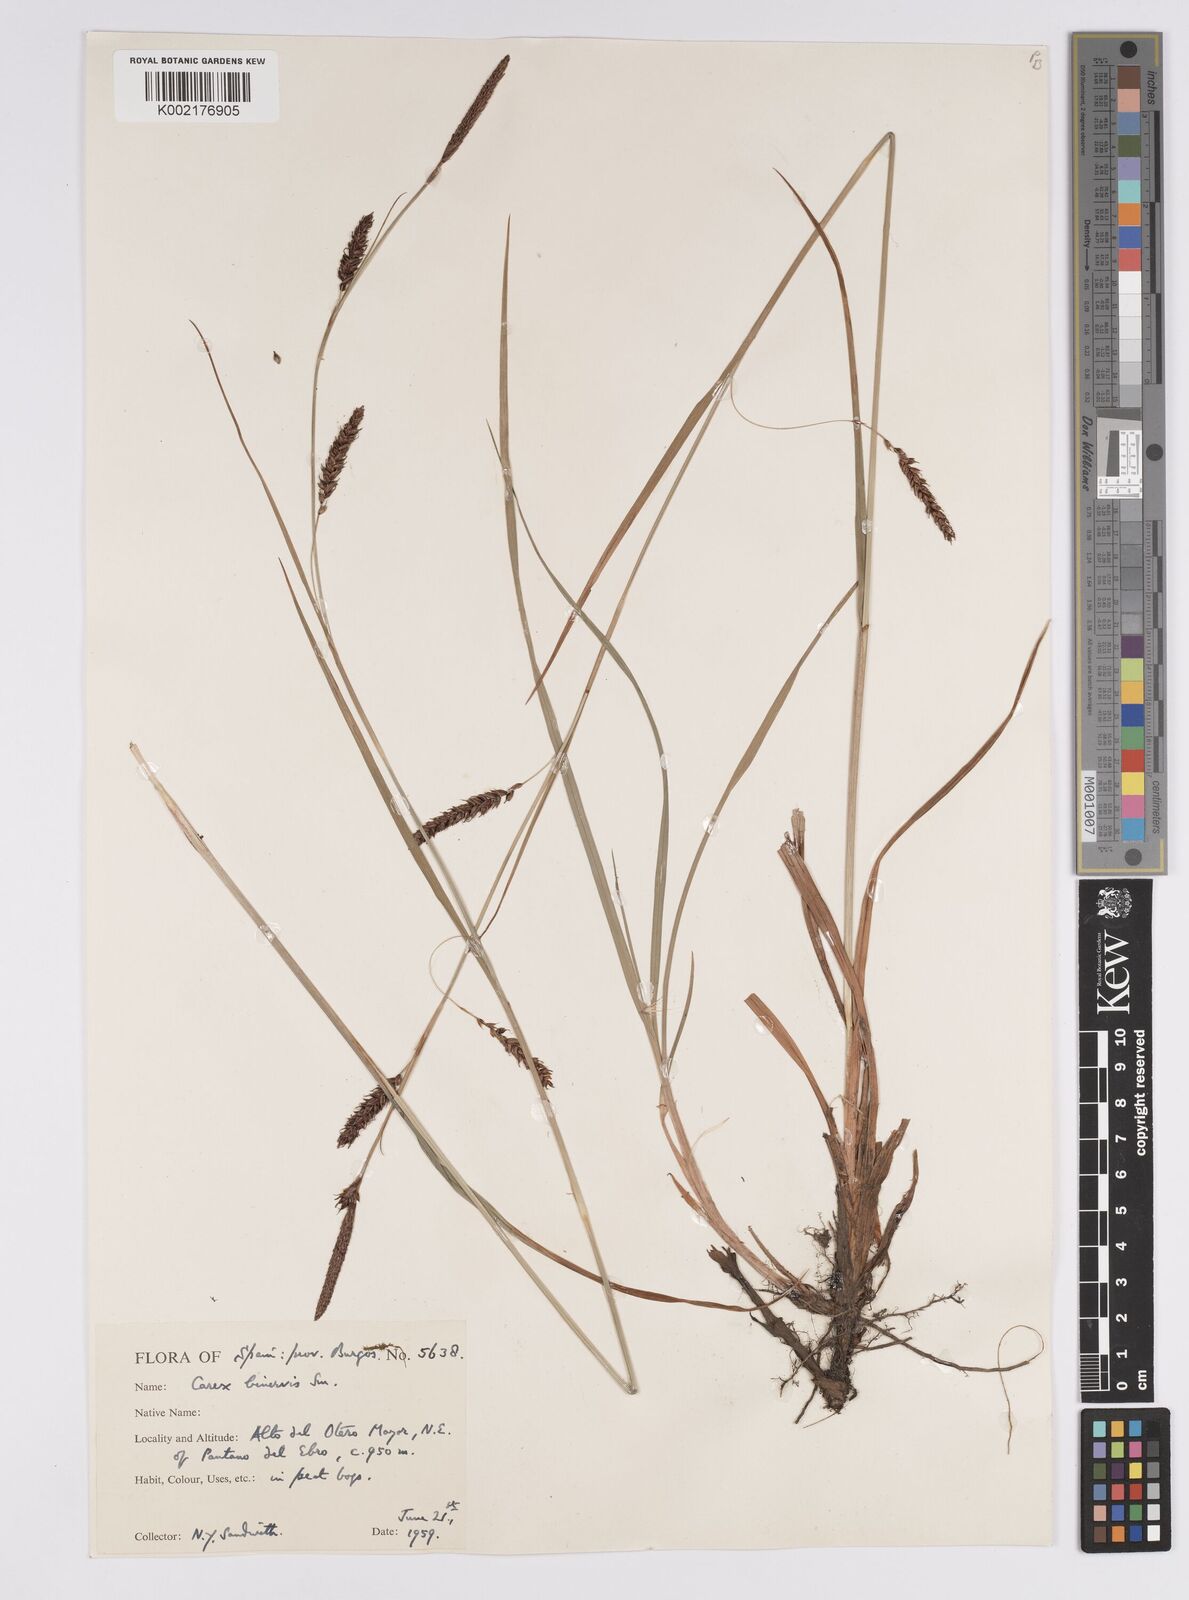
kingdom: Plantae
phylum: Tracheophyta
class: Liliopsida
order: Poales
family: Cyperaceae
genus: Carex
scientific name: Carex binervis
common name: Green-ribbed sedge
